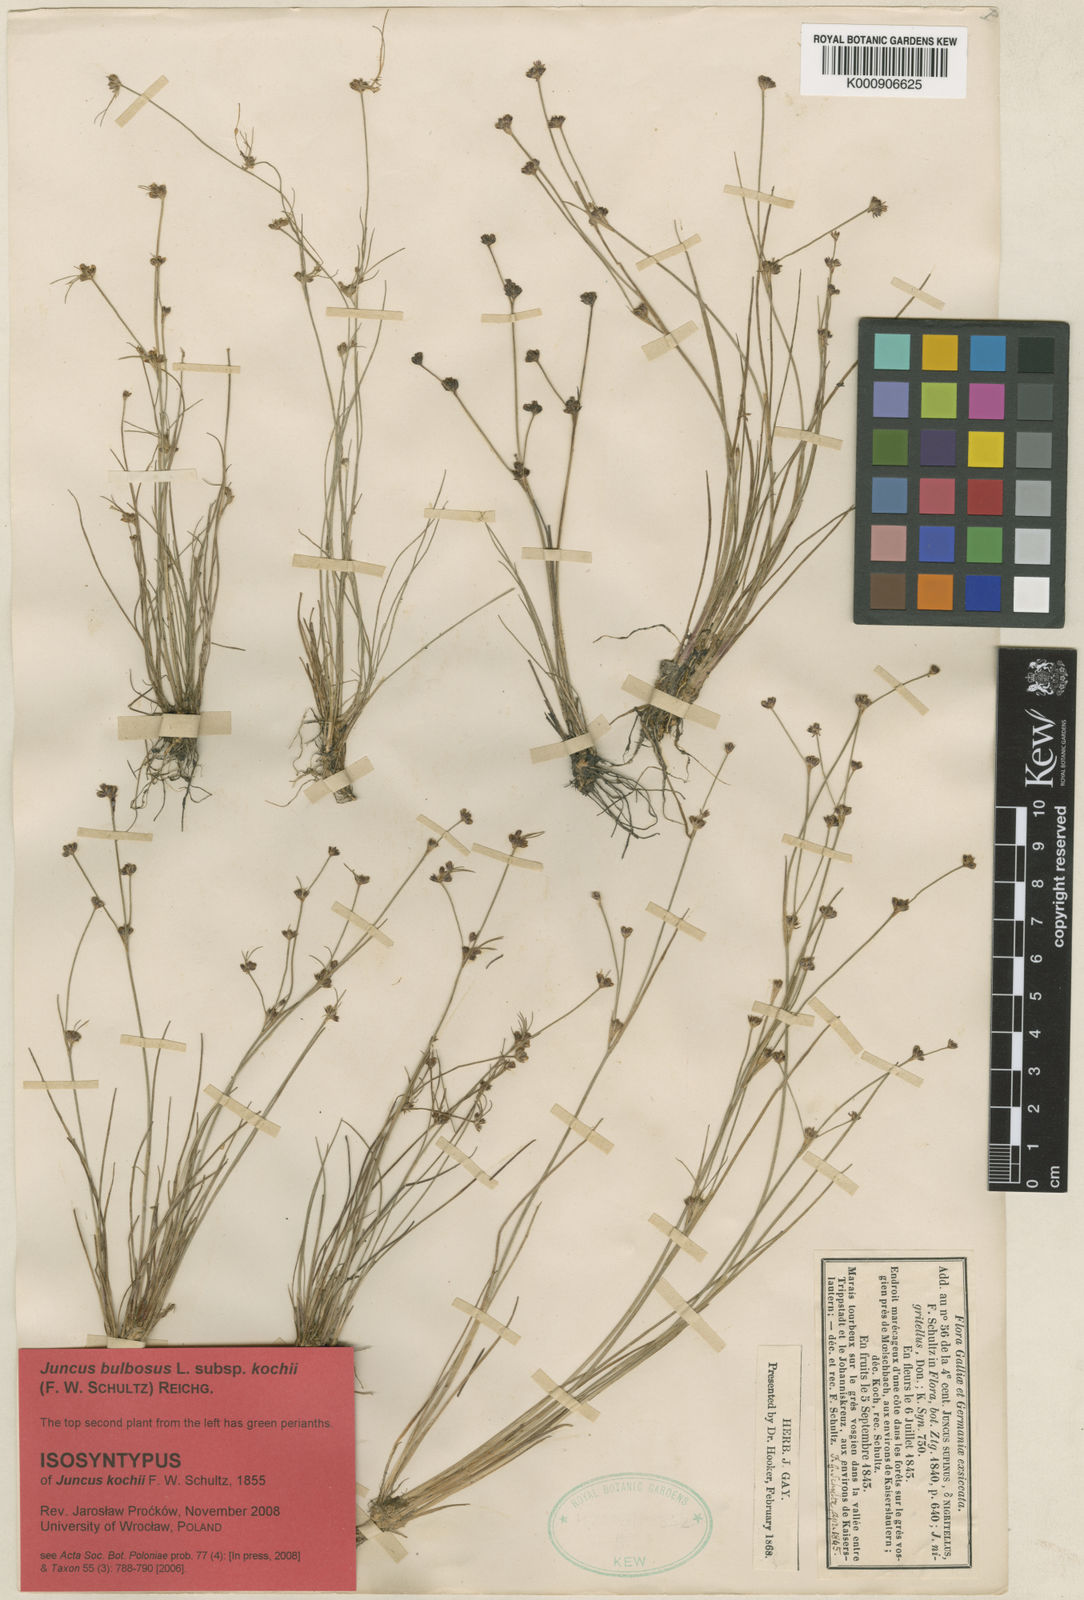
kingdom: Plantae
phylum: Tracheophyta
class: Liliopsida
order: Poales
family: Juncaceae
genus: Juncus
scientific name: Juncus bulbosus
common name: Bulbous rush
